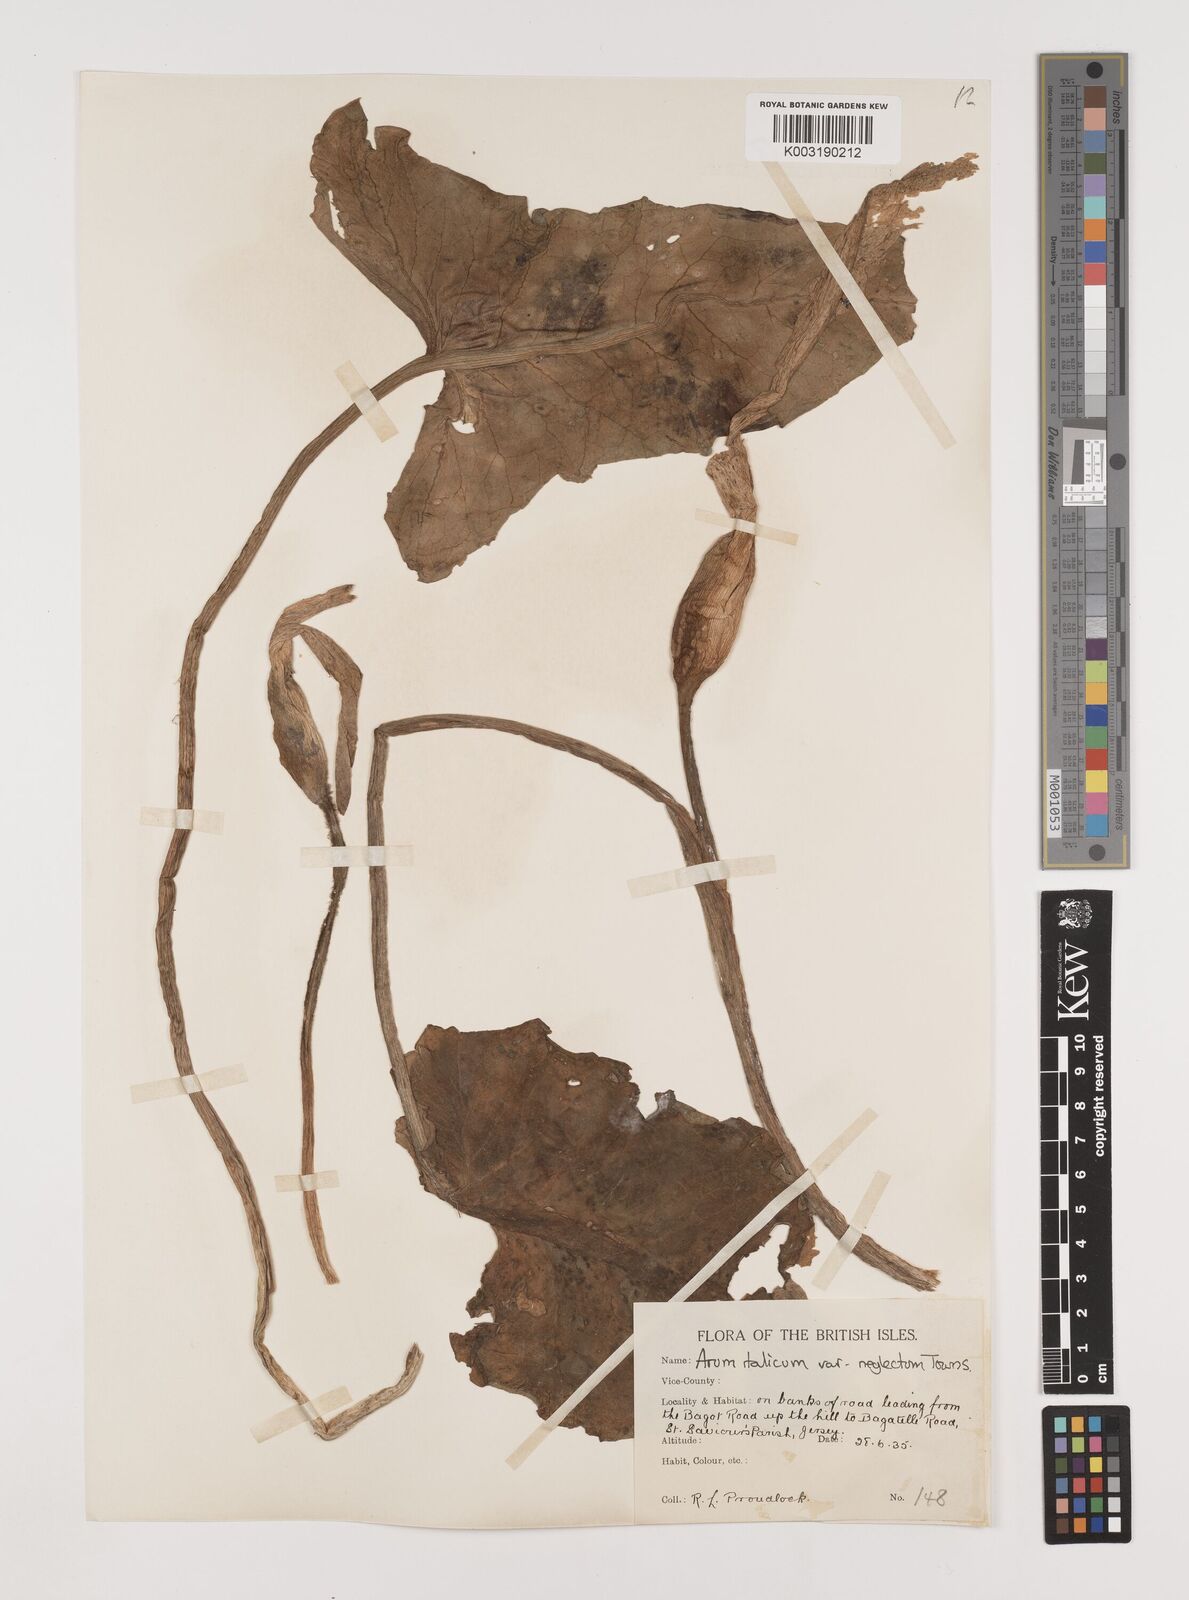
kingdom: Plantae
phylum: Tracheophyta
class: Liliopsida
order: Alismatales
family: Araceae
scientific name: Araceae
